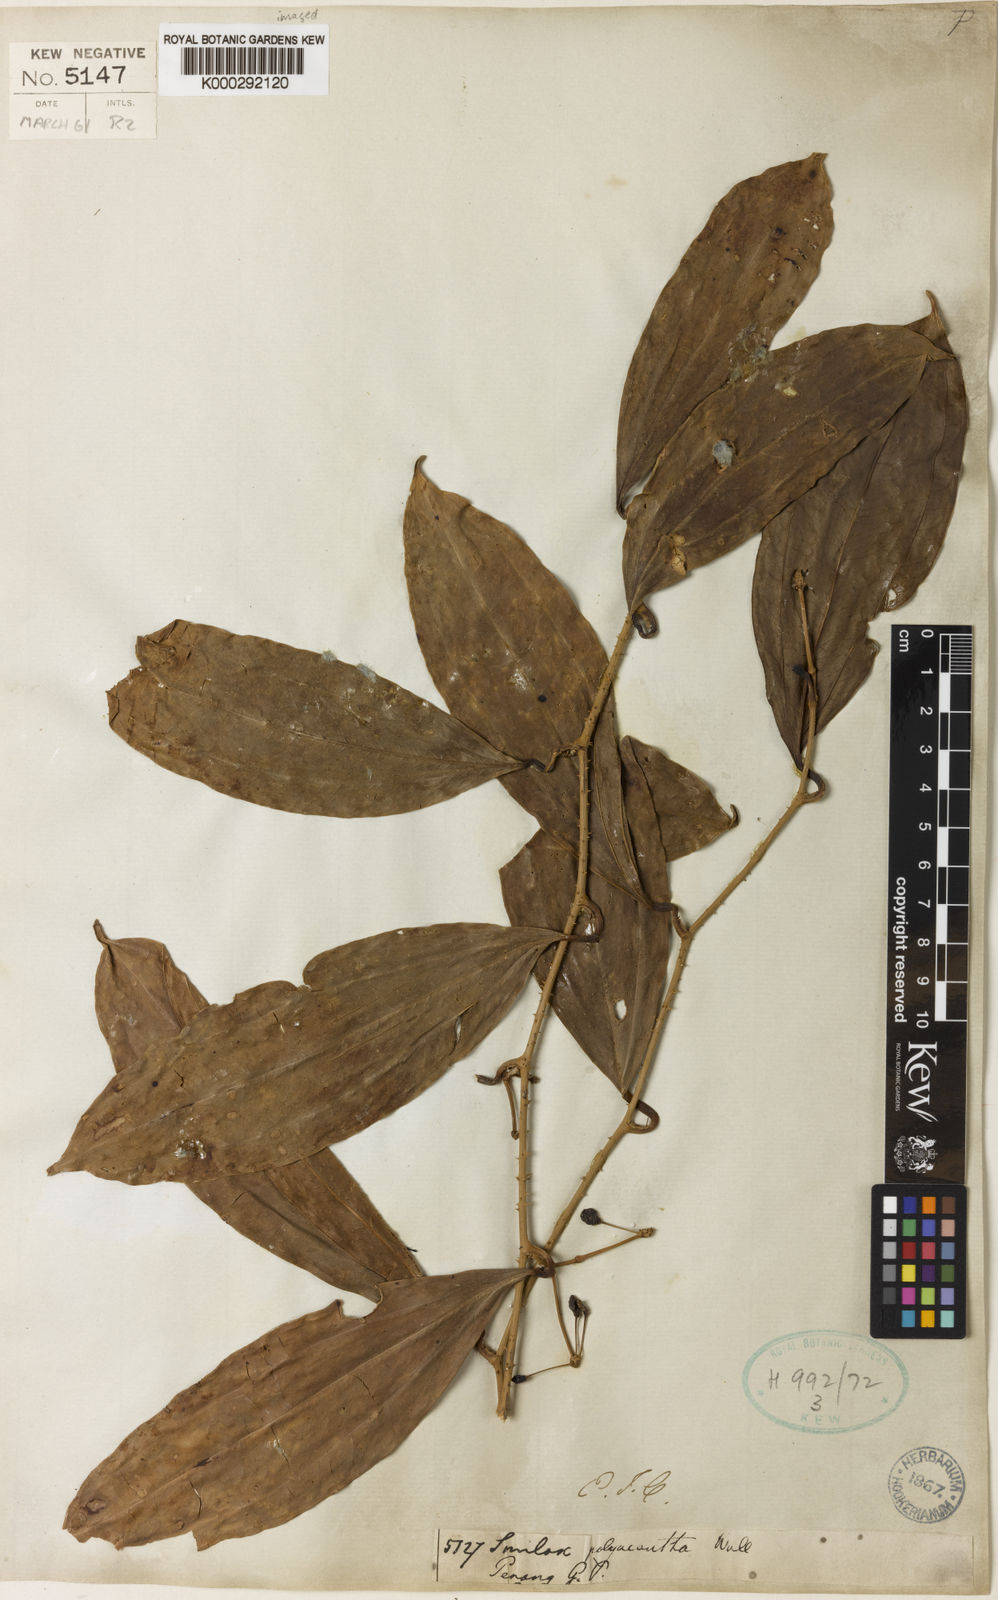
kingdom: Plantae
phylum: Tracheophyta
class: Liliopsida
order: Liliales
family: Smilacaceae
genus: Smilax
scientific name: Smilax polyacantha
